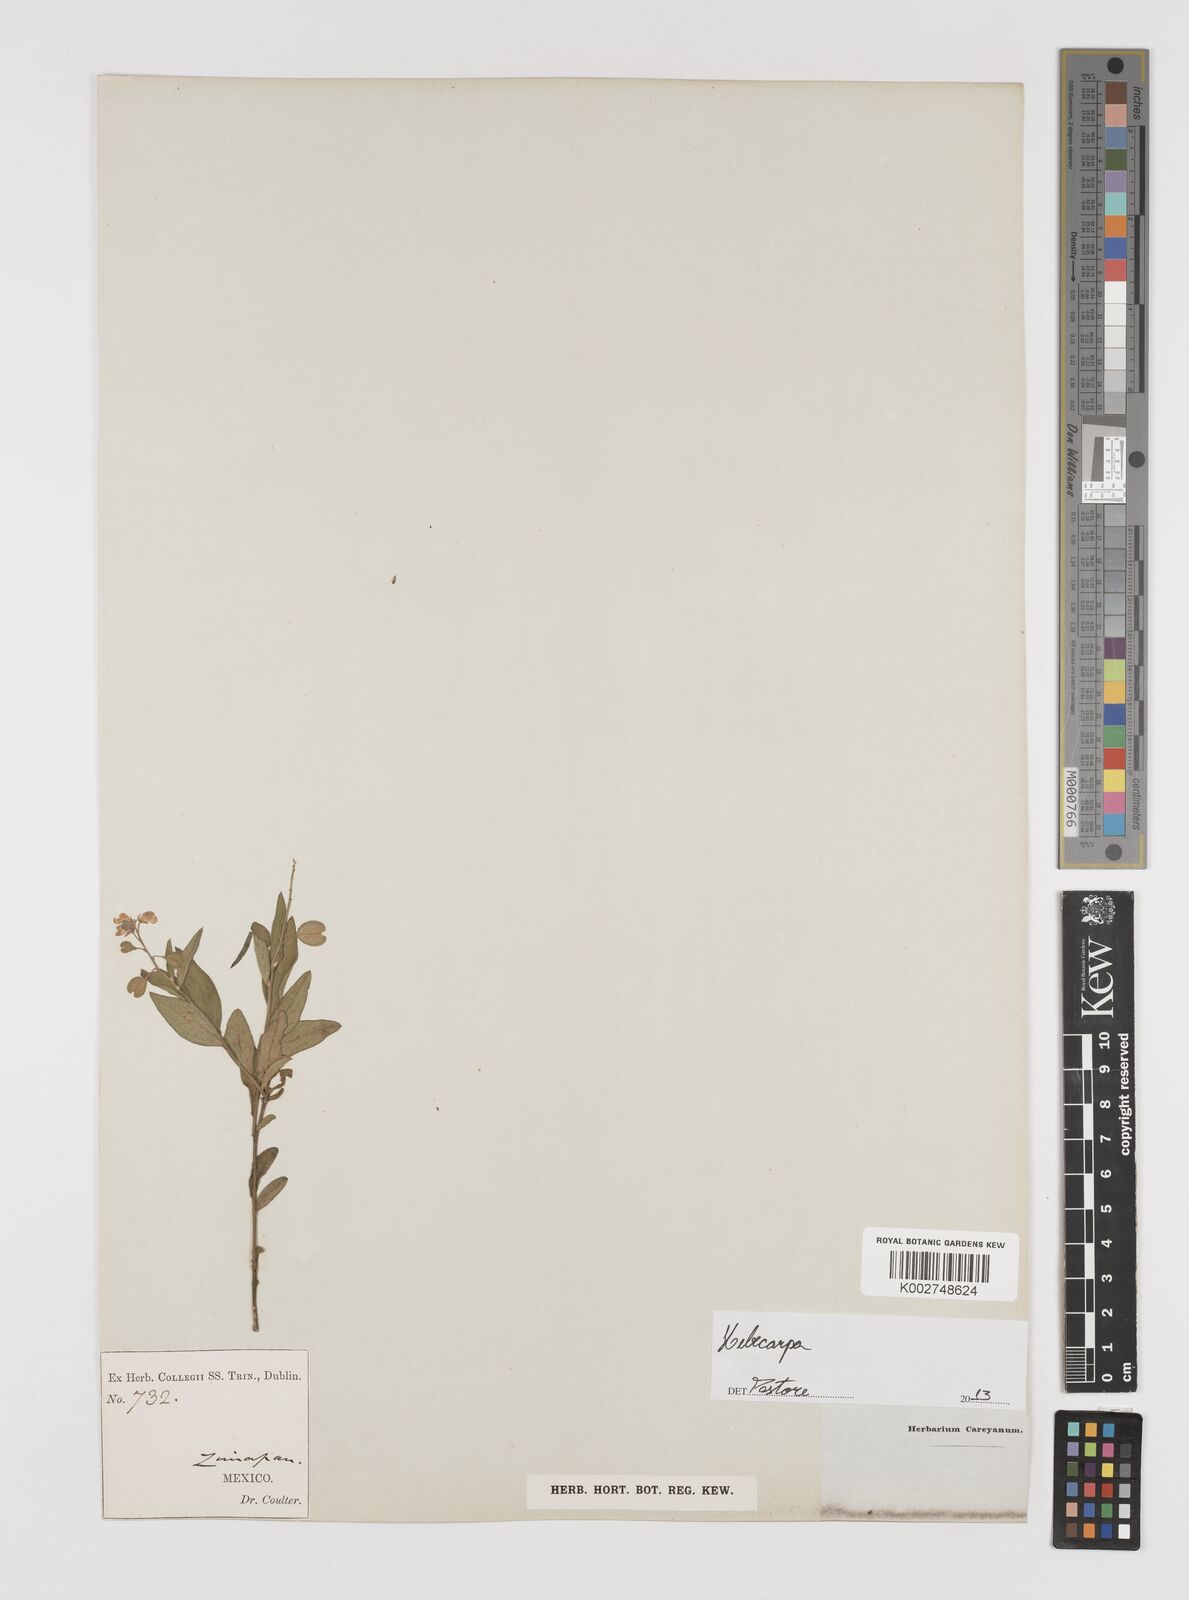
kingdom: Plantae
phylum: Tracheophyta
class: Magnoliopsida
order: Fabales
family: Polygalaceae
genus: Hebecarpa
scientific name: Hebecarpa
